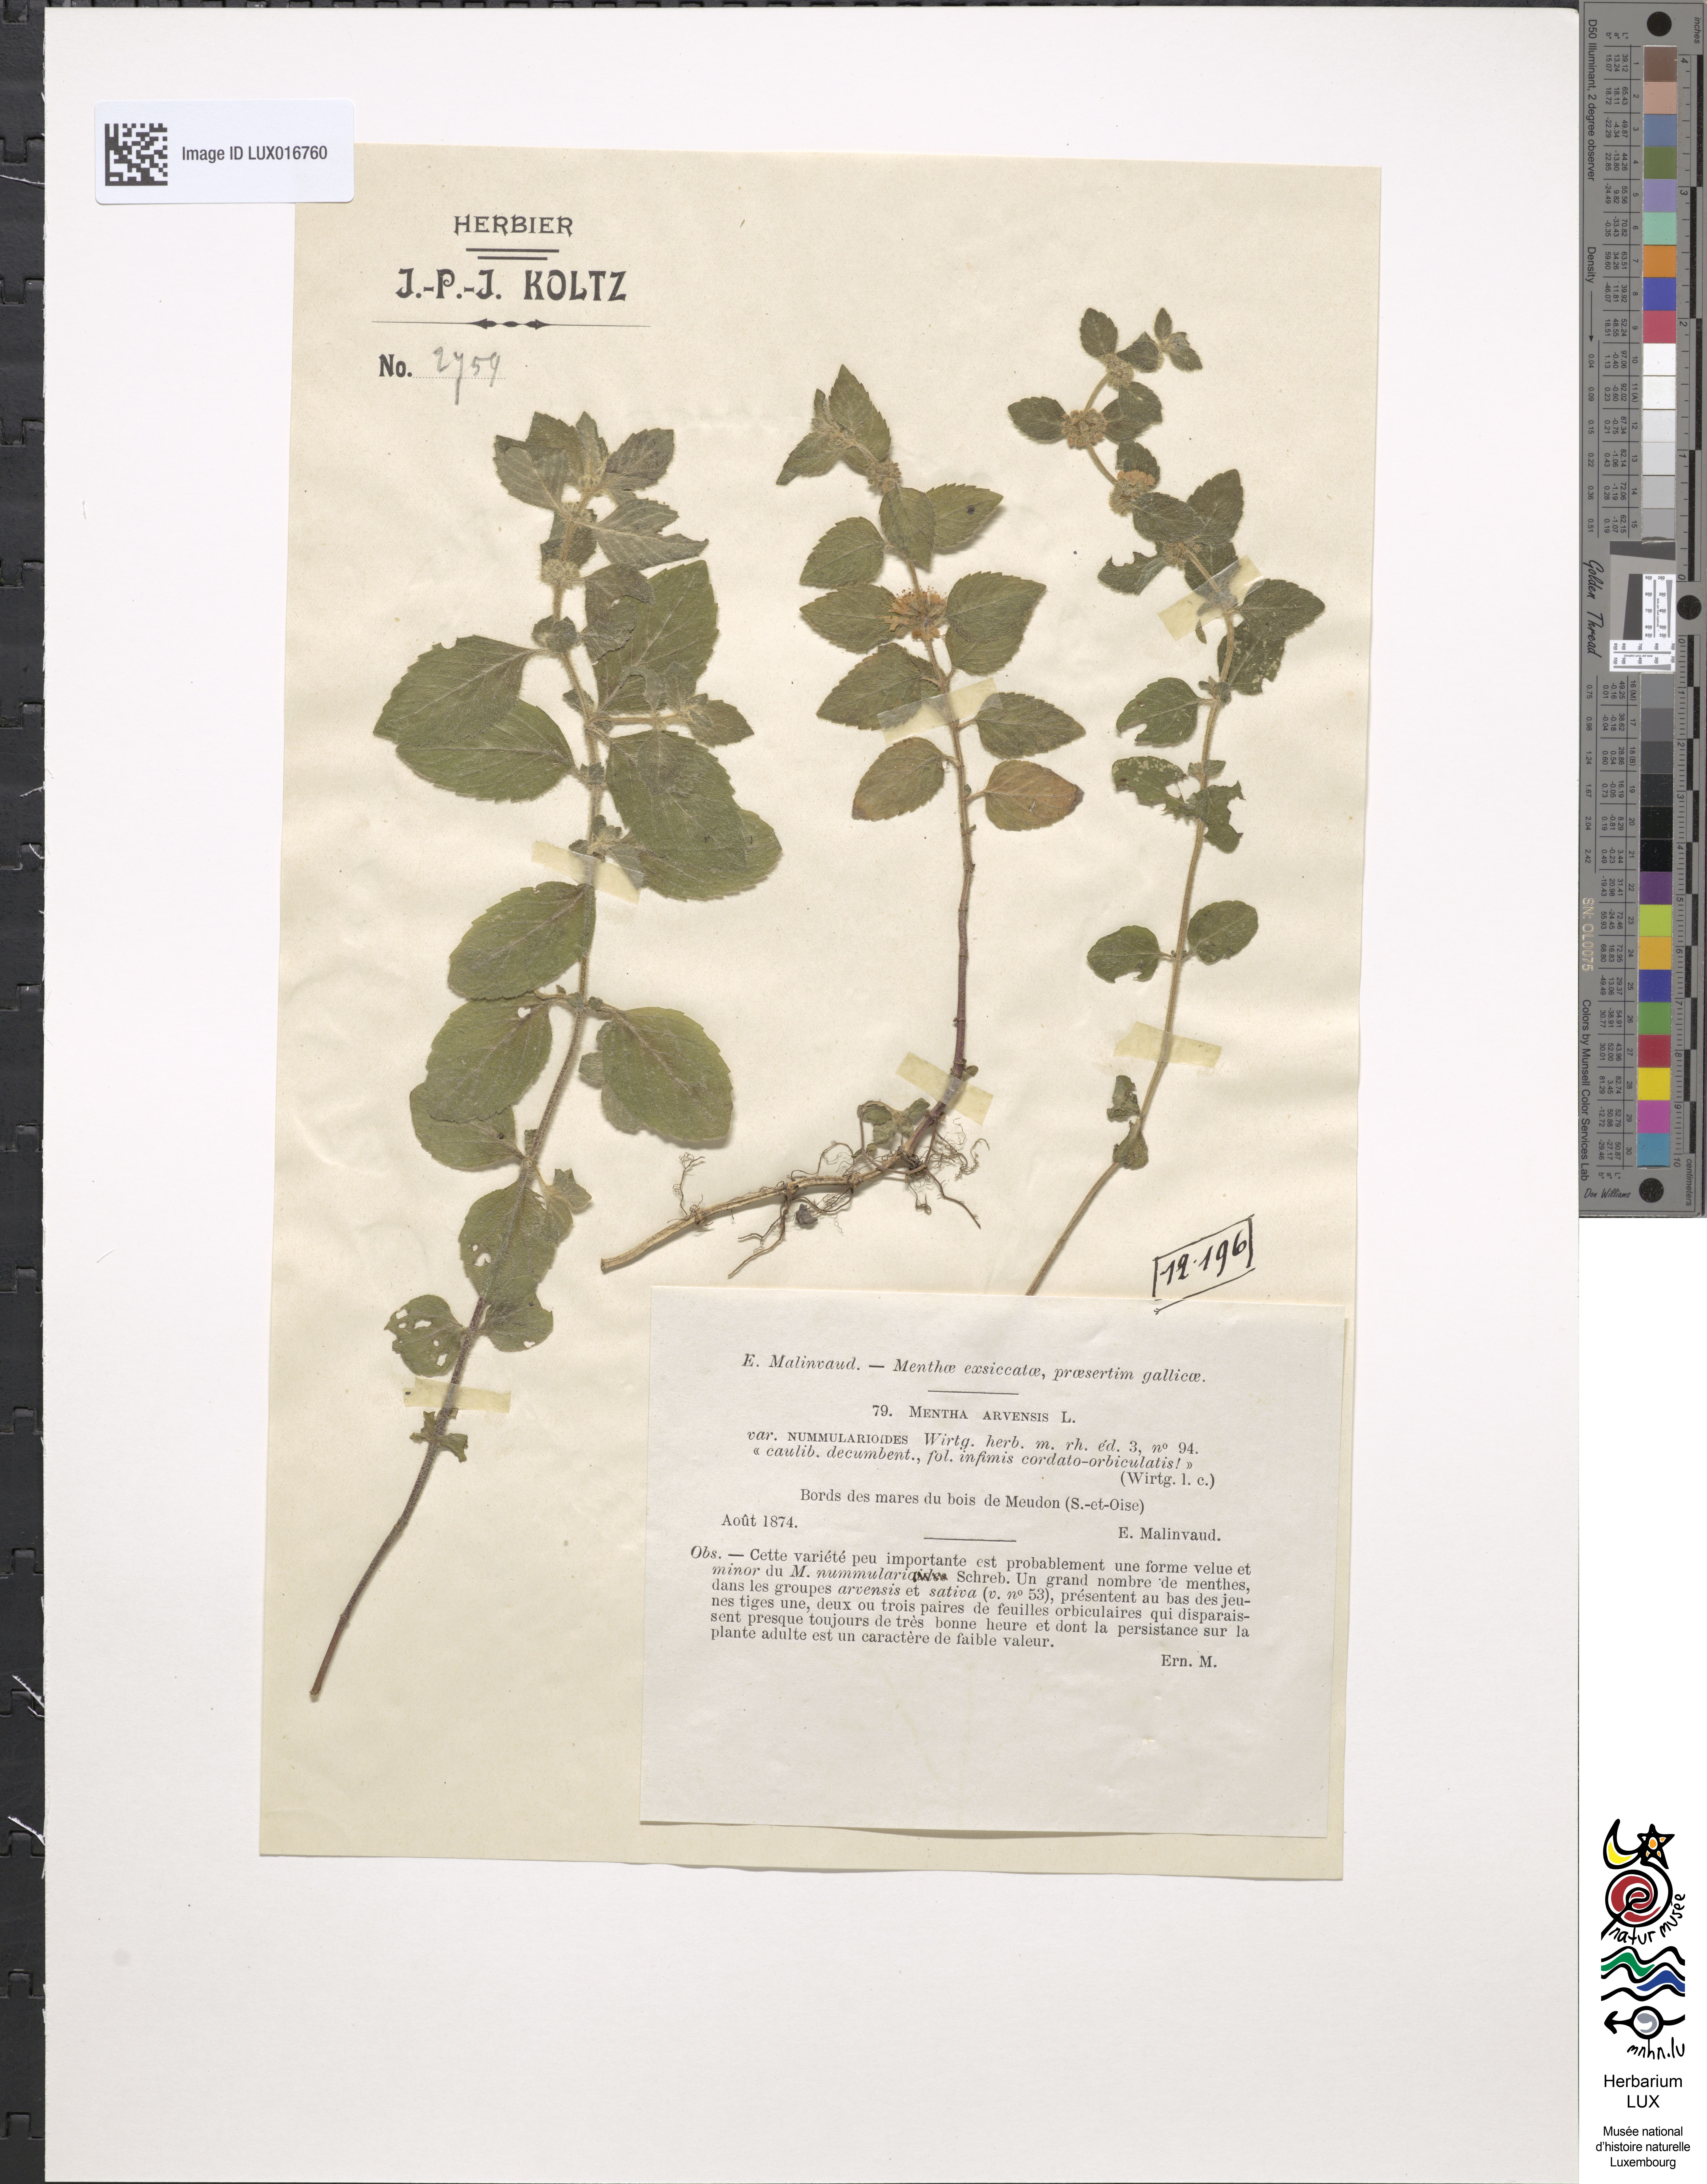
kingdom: Plantae
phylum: Tracheophyta
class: Magnoliopsida
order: Lamiales
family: Lamiaceae
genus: Mentha
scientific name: Mentha arvensis
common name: Corn mint
